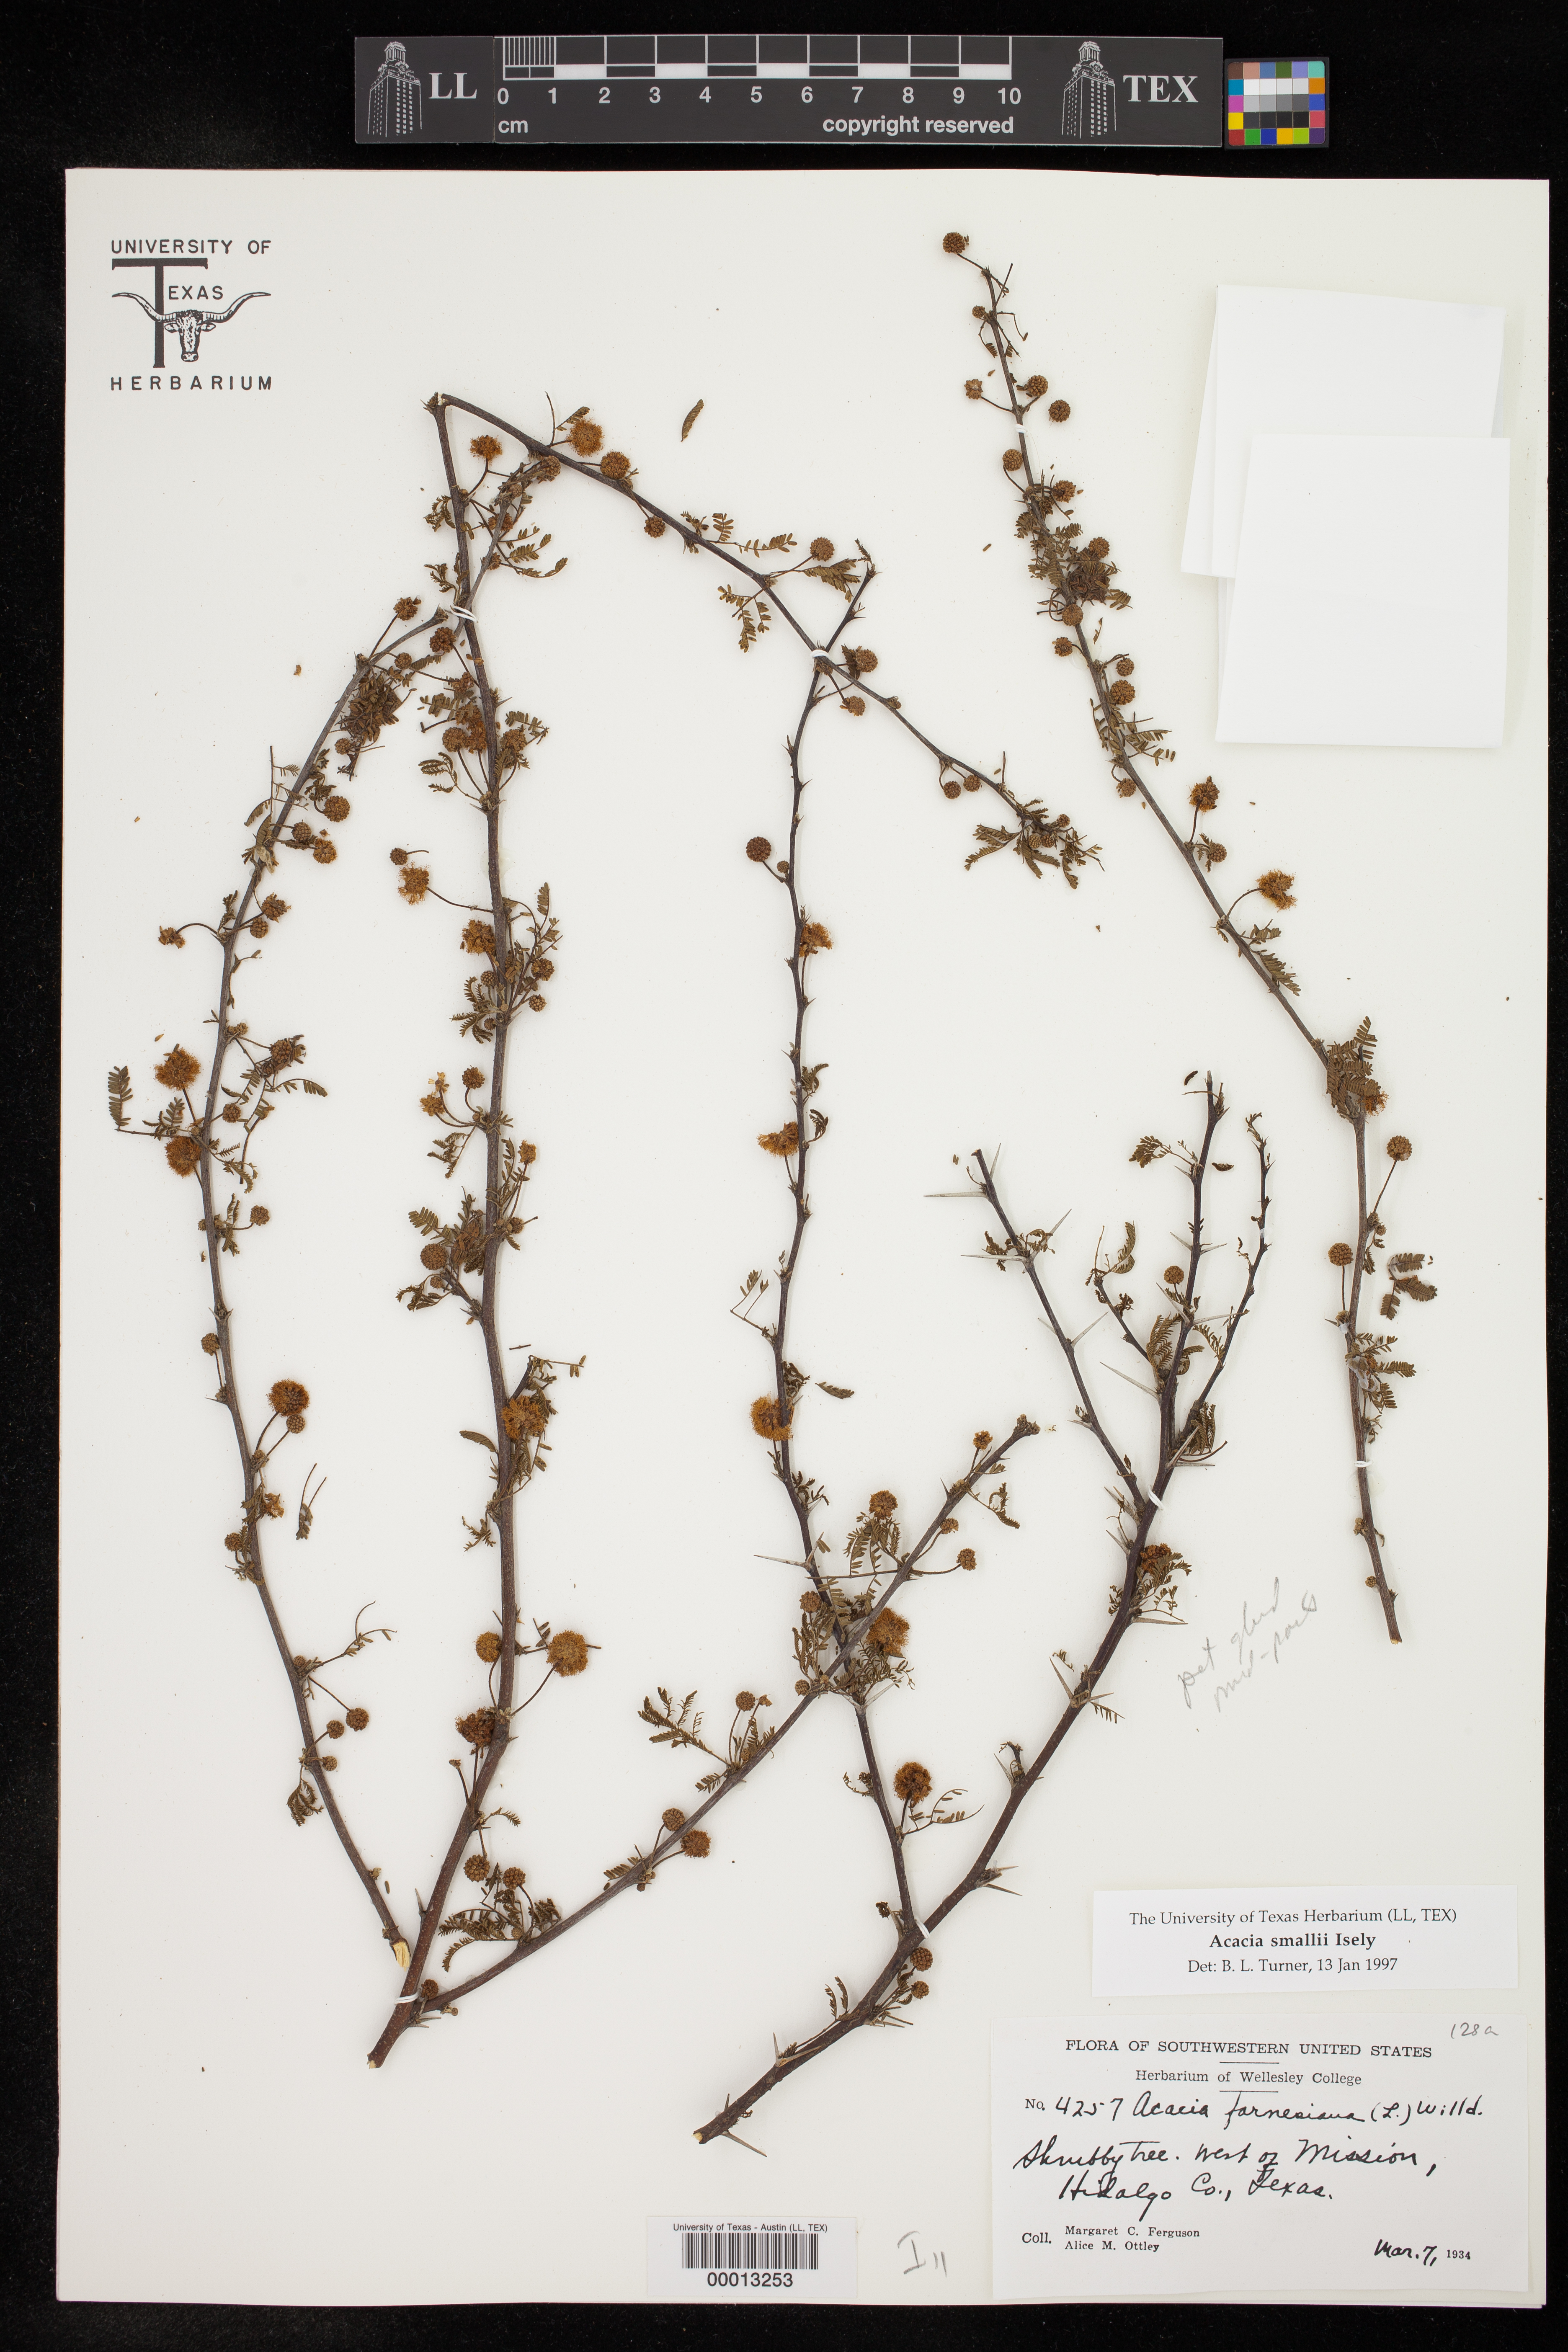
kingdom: Plantae
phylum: Tracheophyta
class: Magnoliopsida
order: Fabales
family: Fabaceae
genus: Vachellia
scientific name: Vachellia farnesiana
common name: Sweet acacia
